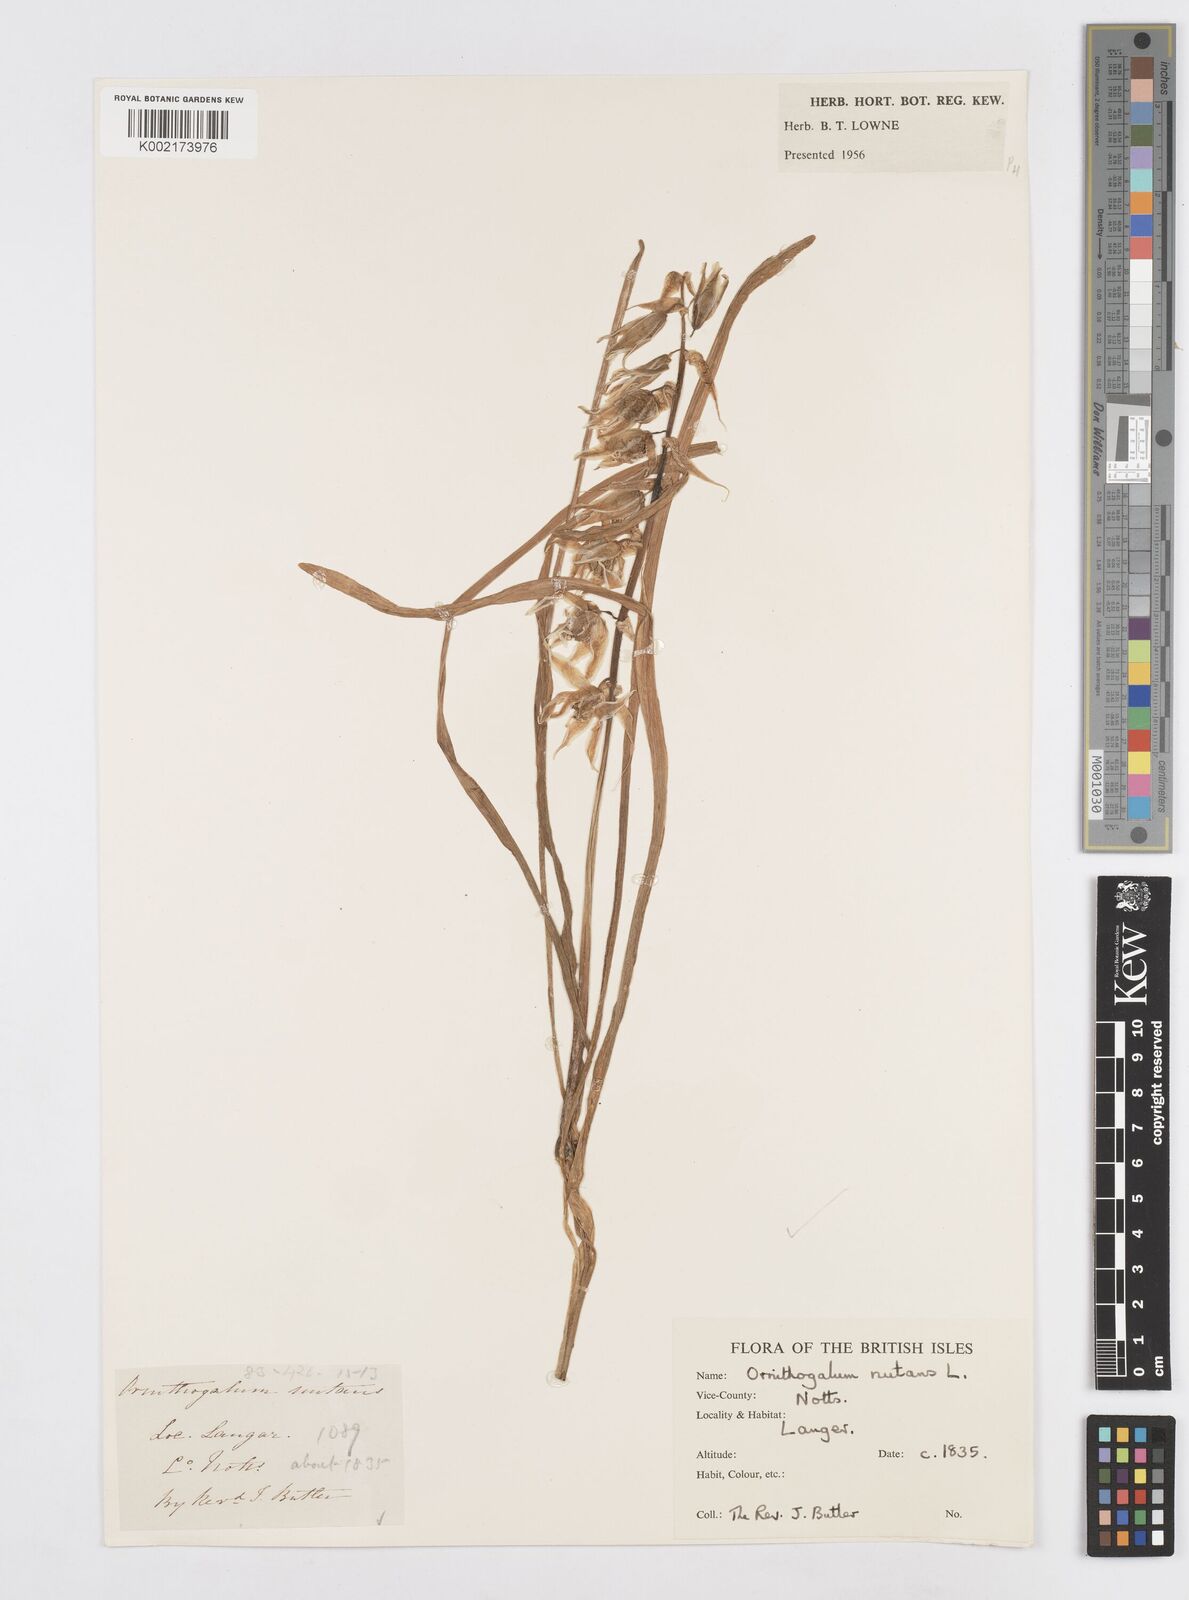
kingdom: Plantae
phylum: Tracheophyta
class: Liliopsida
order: Asparagales
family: Asparagaceae
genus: Ornithogalum
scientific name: Ornithogalum nutans
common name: Drooping star-of-bethlehem
